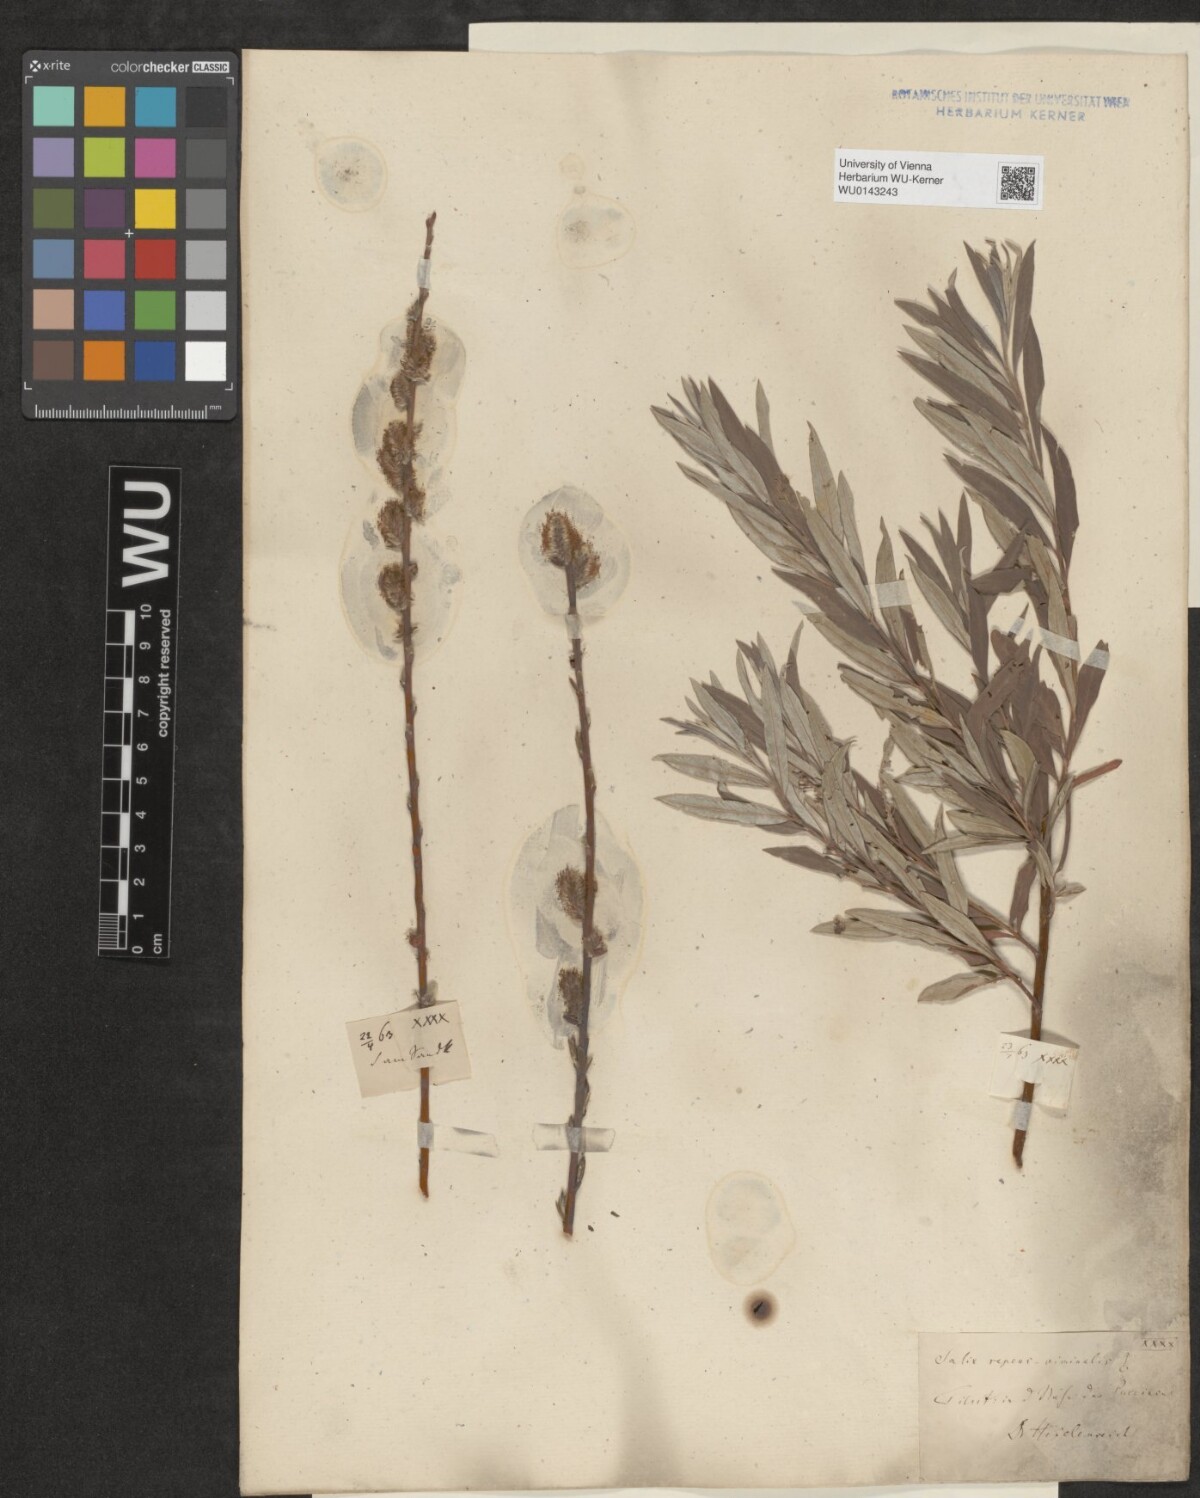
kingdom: Plantae
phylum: Tracheophyta
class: Magnoliopsida
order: Malpighiales
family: Salicaceae
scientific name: Salicaceae
